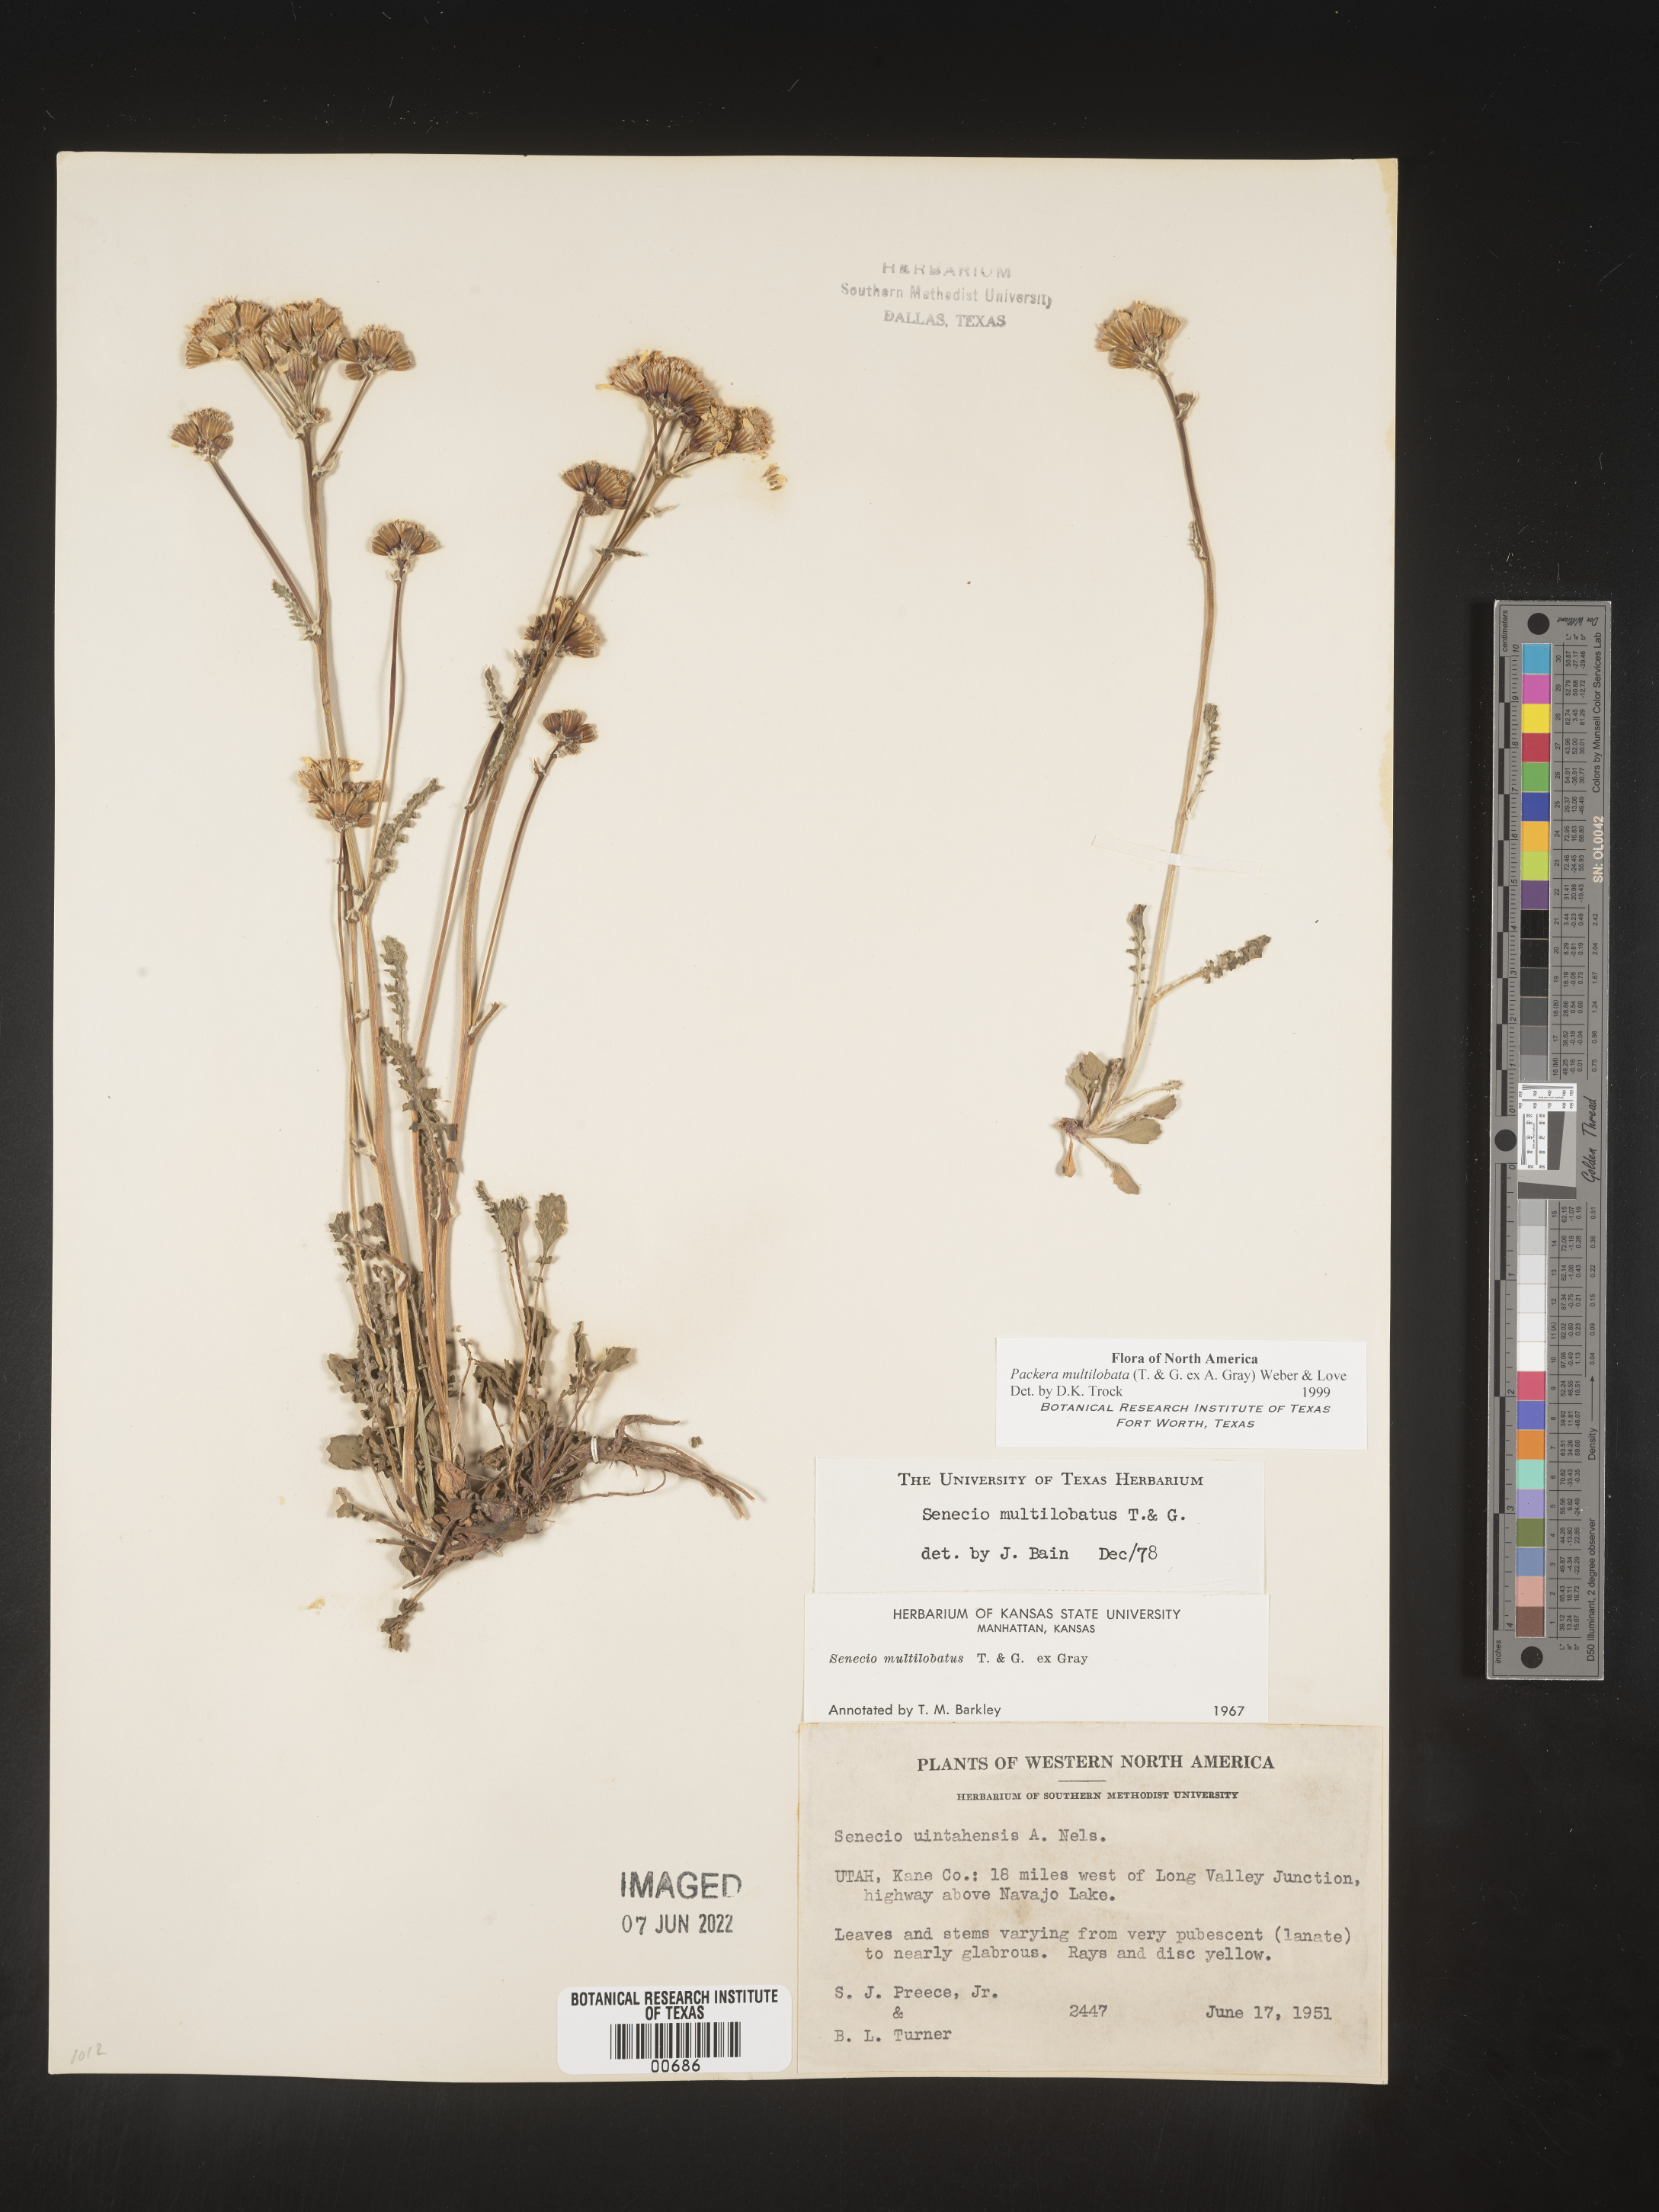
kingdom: Plantae
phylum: Tracheophyta
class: Magnoliopsida
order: Asterales
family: Asteraceae
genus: Packera
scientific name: Packera multilobata
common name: Lobe-leaf groundsel
